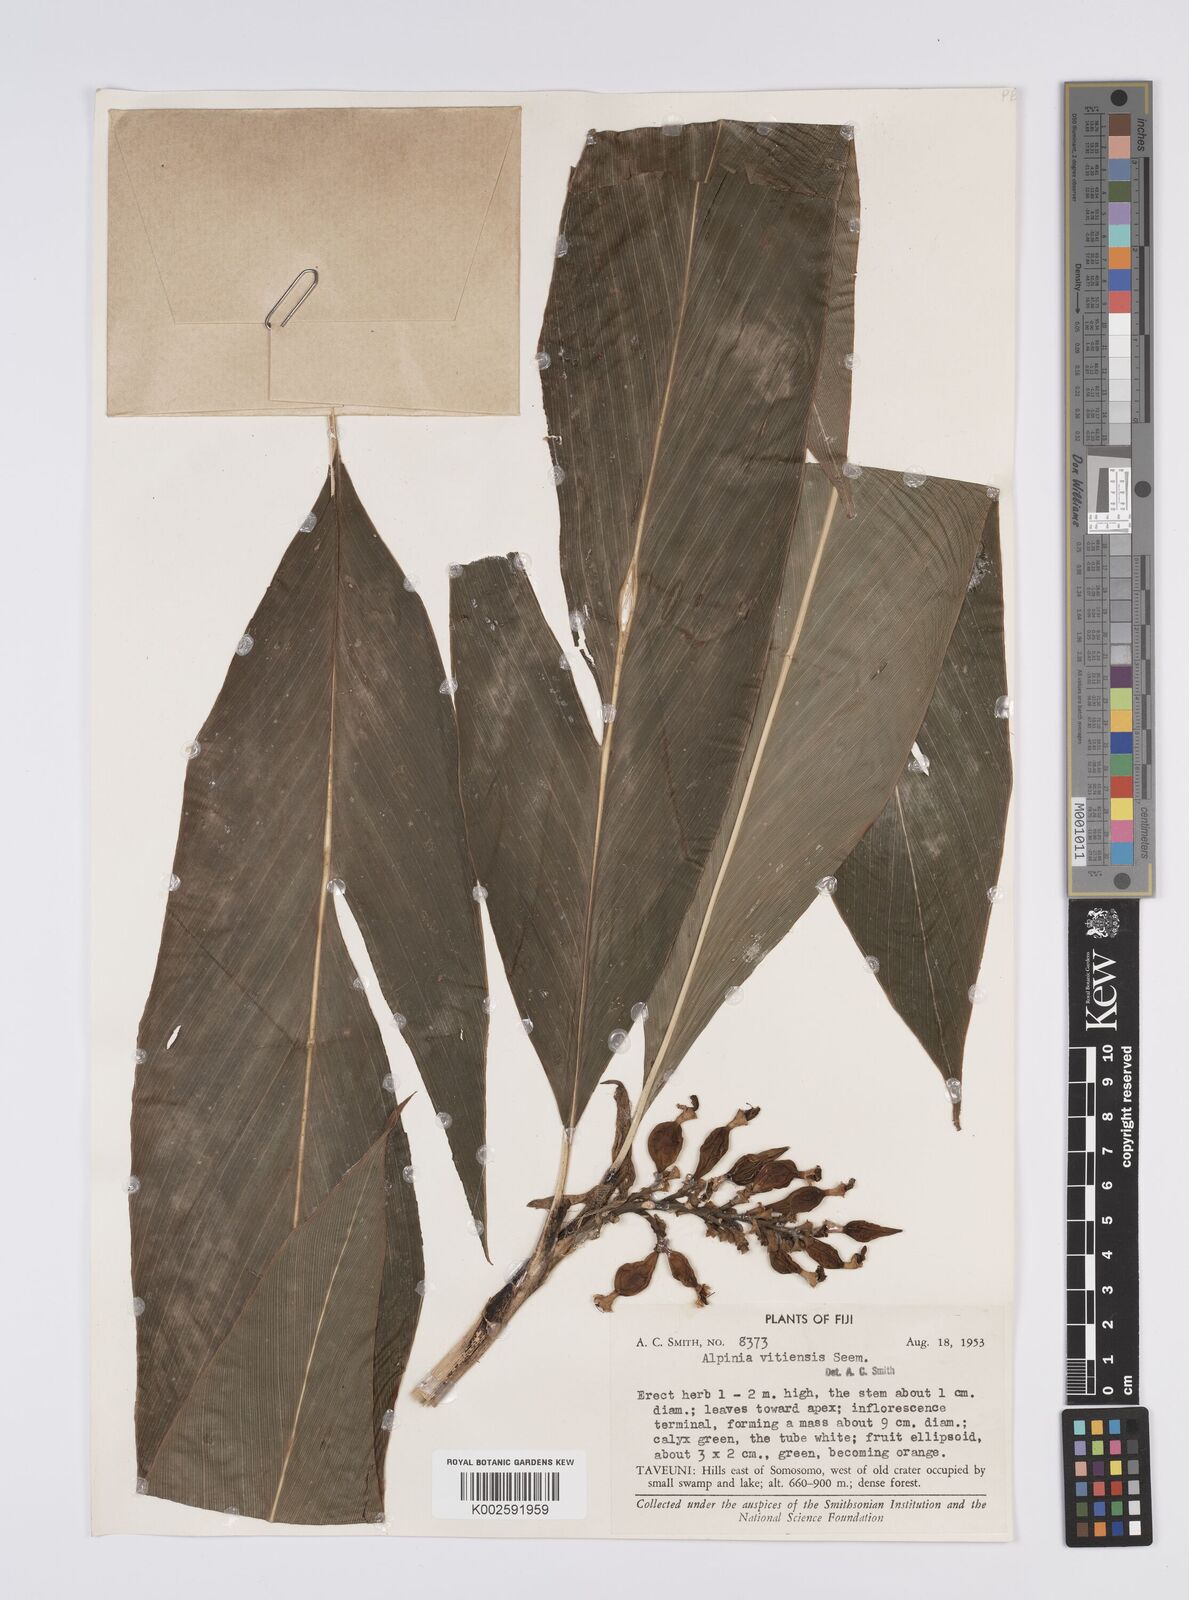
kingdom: Plantae
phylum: Tracheophyta
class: Liliopsida
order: Zingiberales
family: Zingiberaceae
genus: Alpinia
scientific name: Alpinia vitiensis
